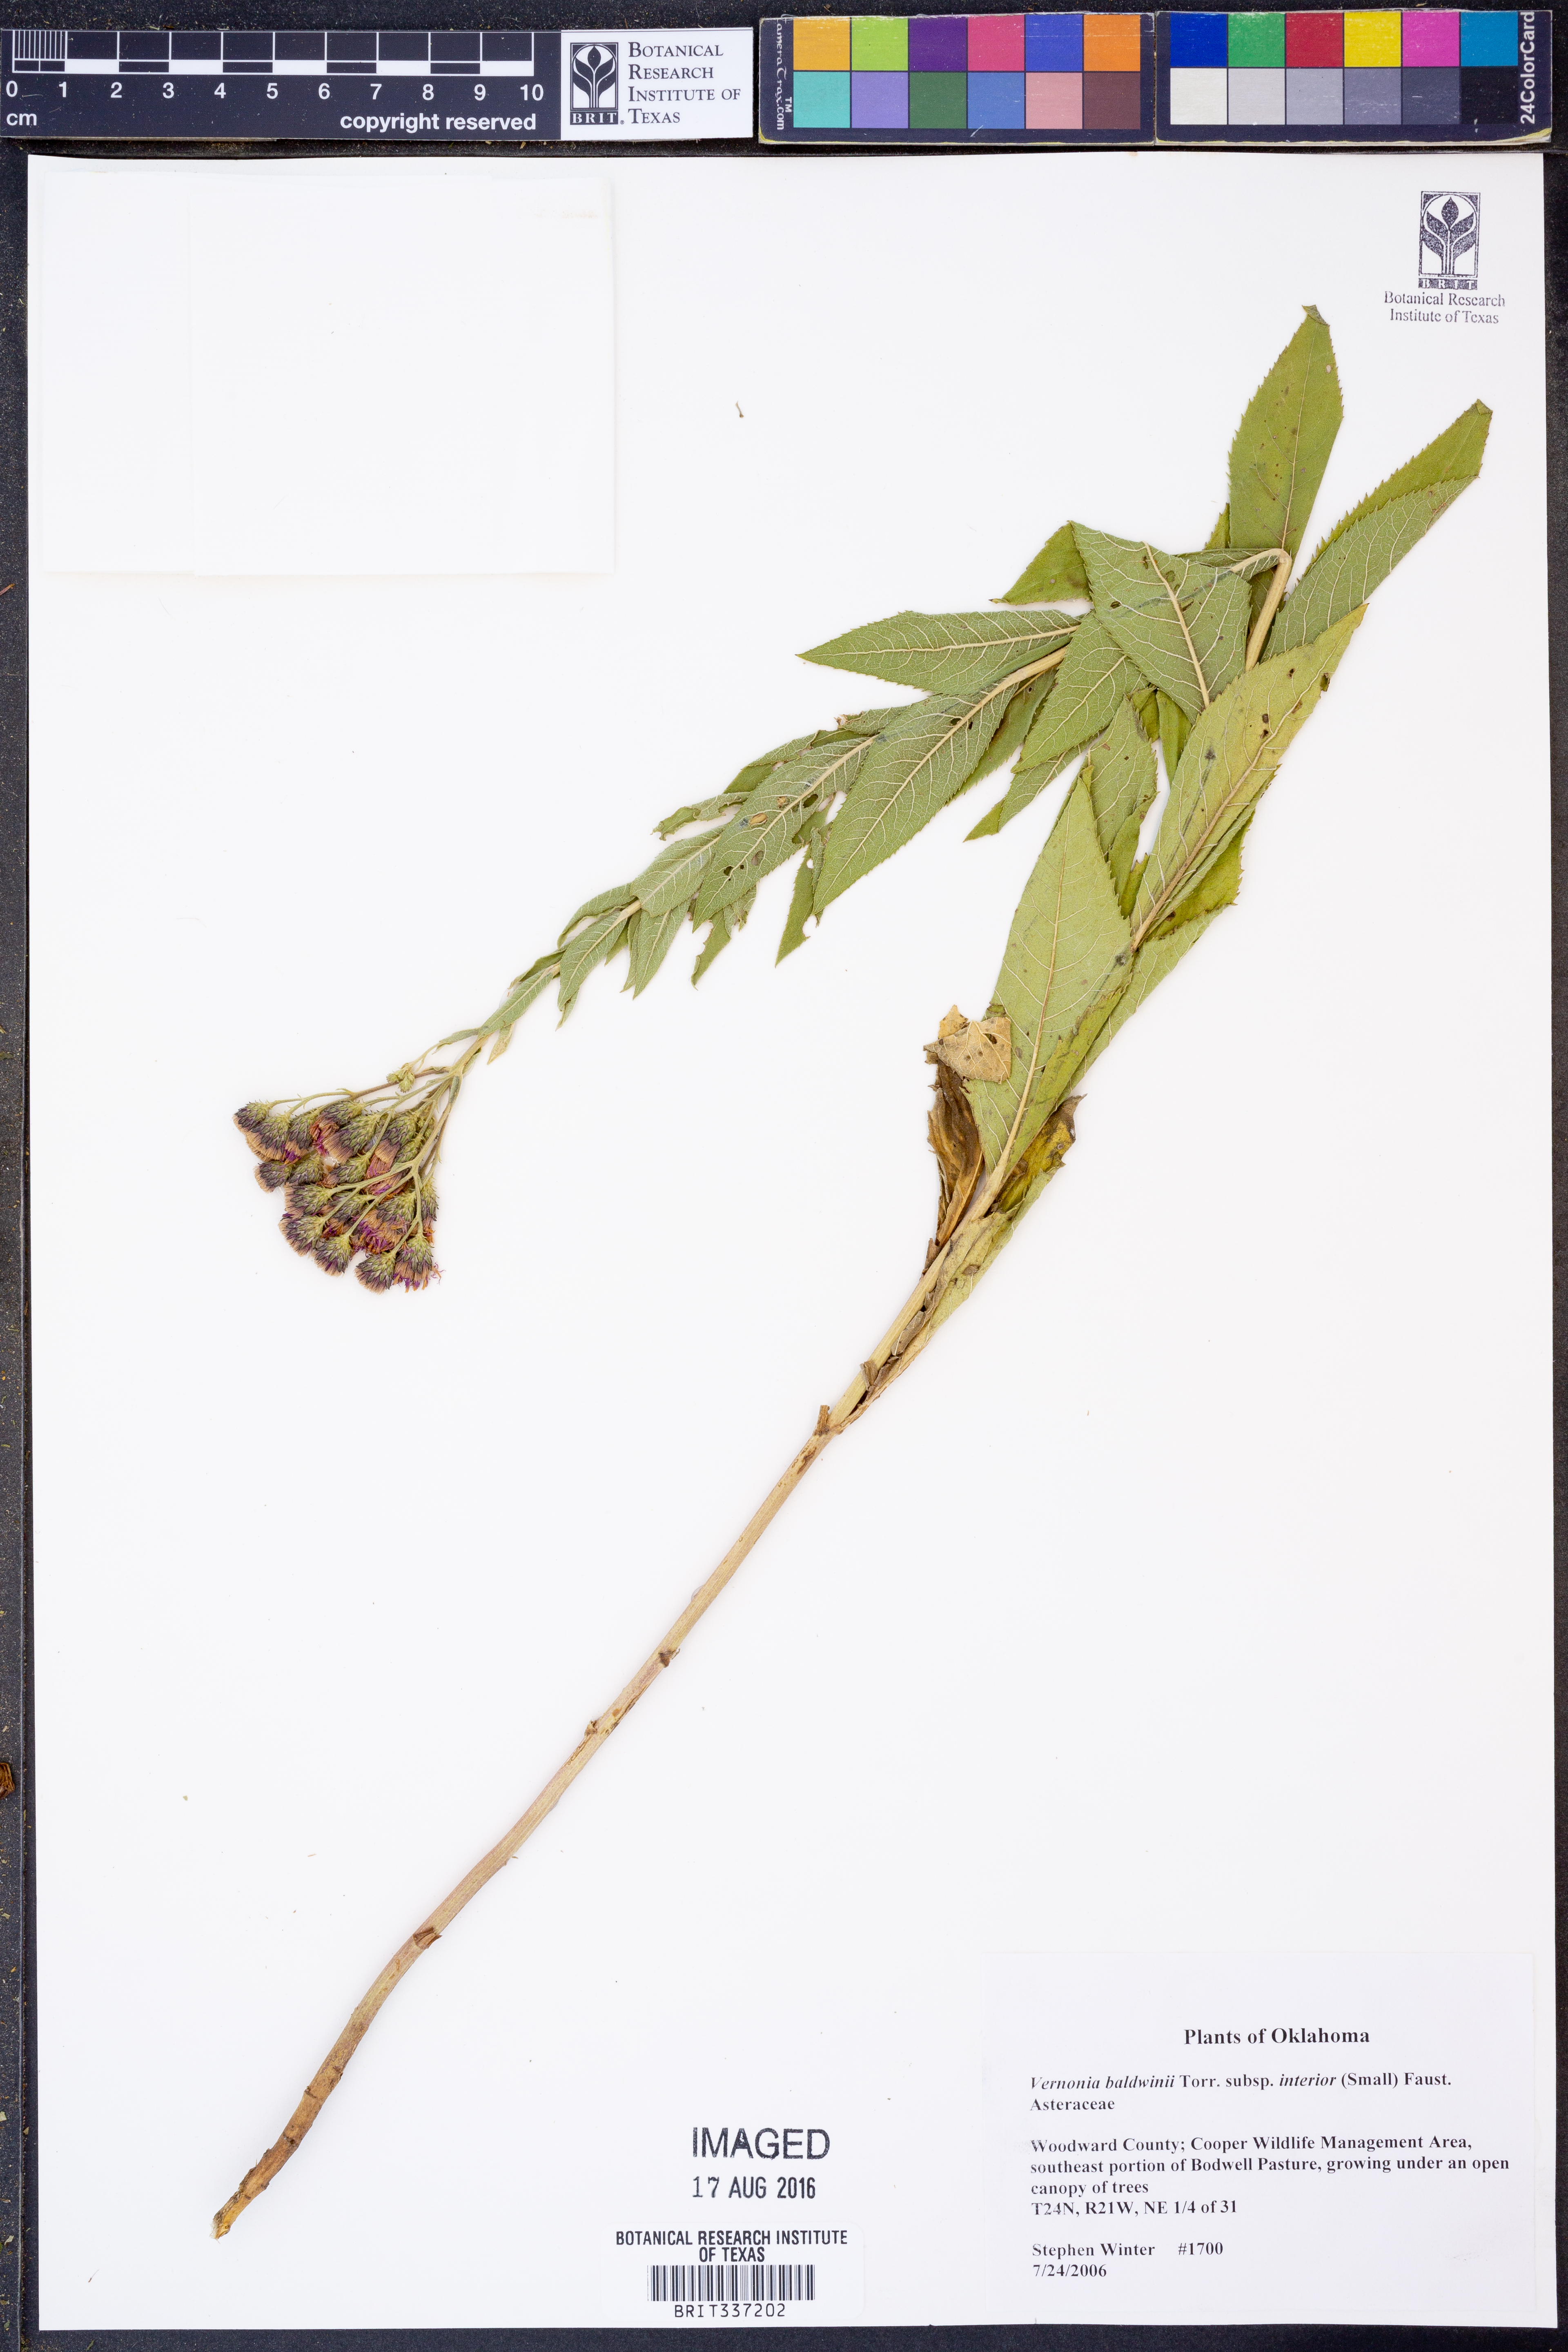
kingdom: Plantae
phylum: Tracheophyta
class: Magnoliopsida
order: Asterales
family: Asteraceae
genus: Vernonia
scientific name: Vernonia baldwinii
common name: Western ironweed
